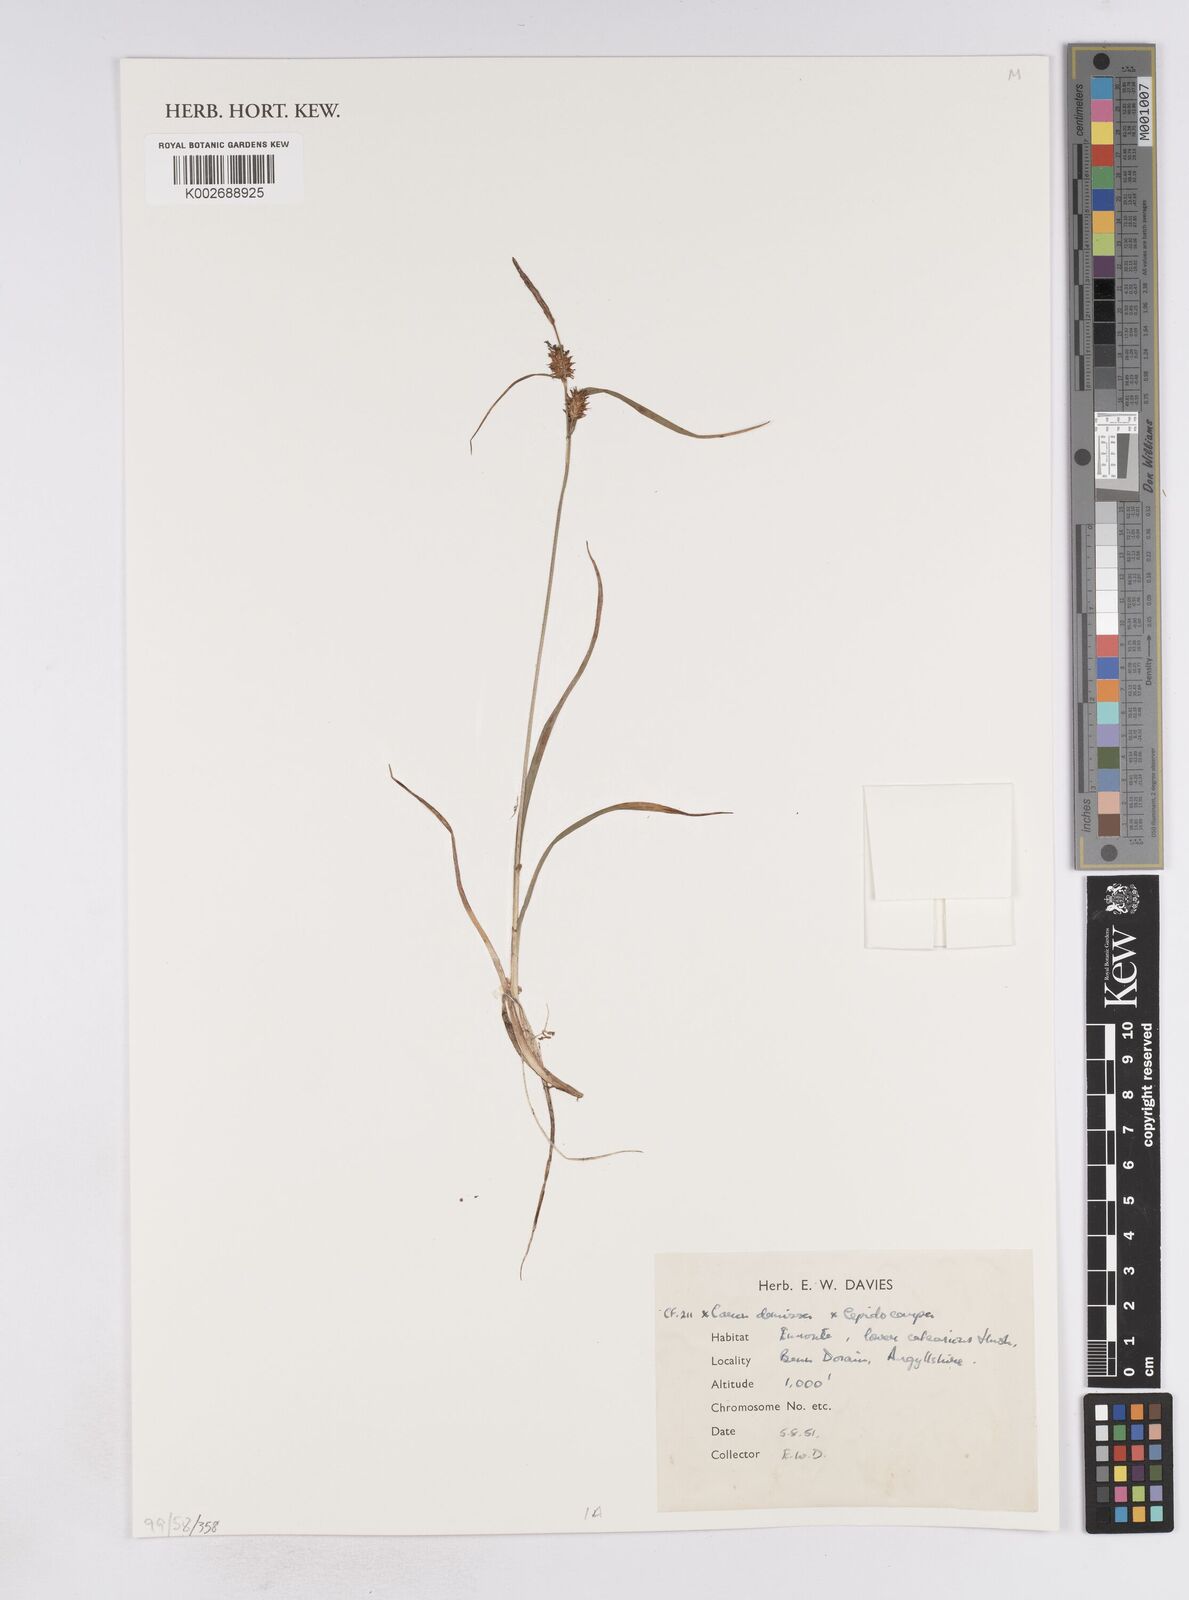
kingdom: Plantae
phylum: Tracheophyta
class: Liliopsida
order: Poales
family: Cyperaceae
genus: Carex
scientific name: Carex demissa
